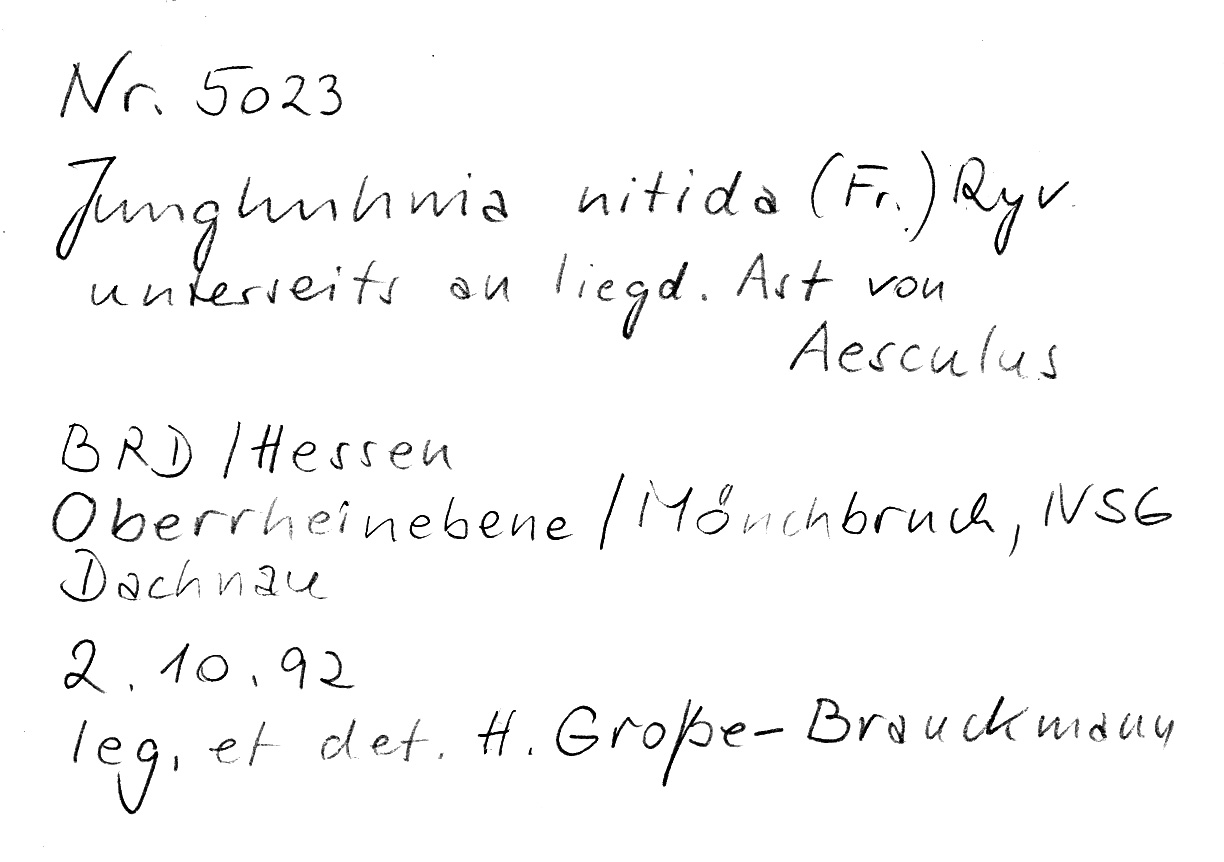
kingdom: Fungi
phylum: Basidiomycota
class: Agaricomycetes
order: Polyporales
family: Steccherinaceae
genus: Junghuhnia
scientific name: Junghuhnia nitida
